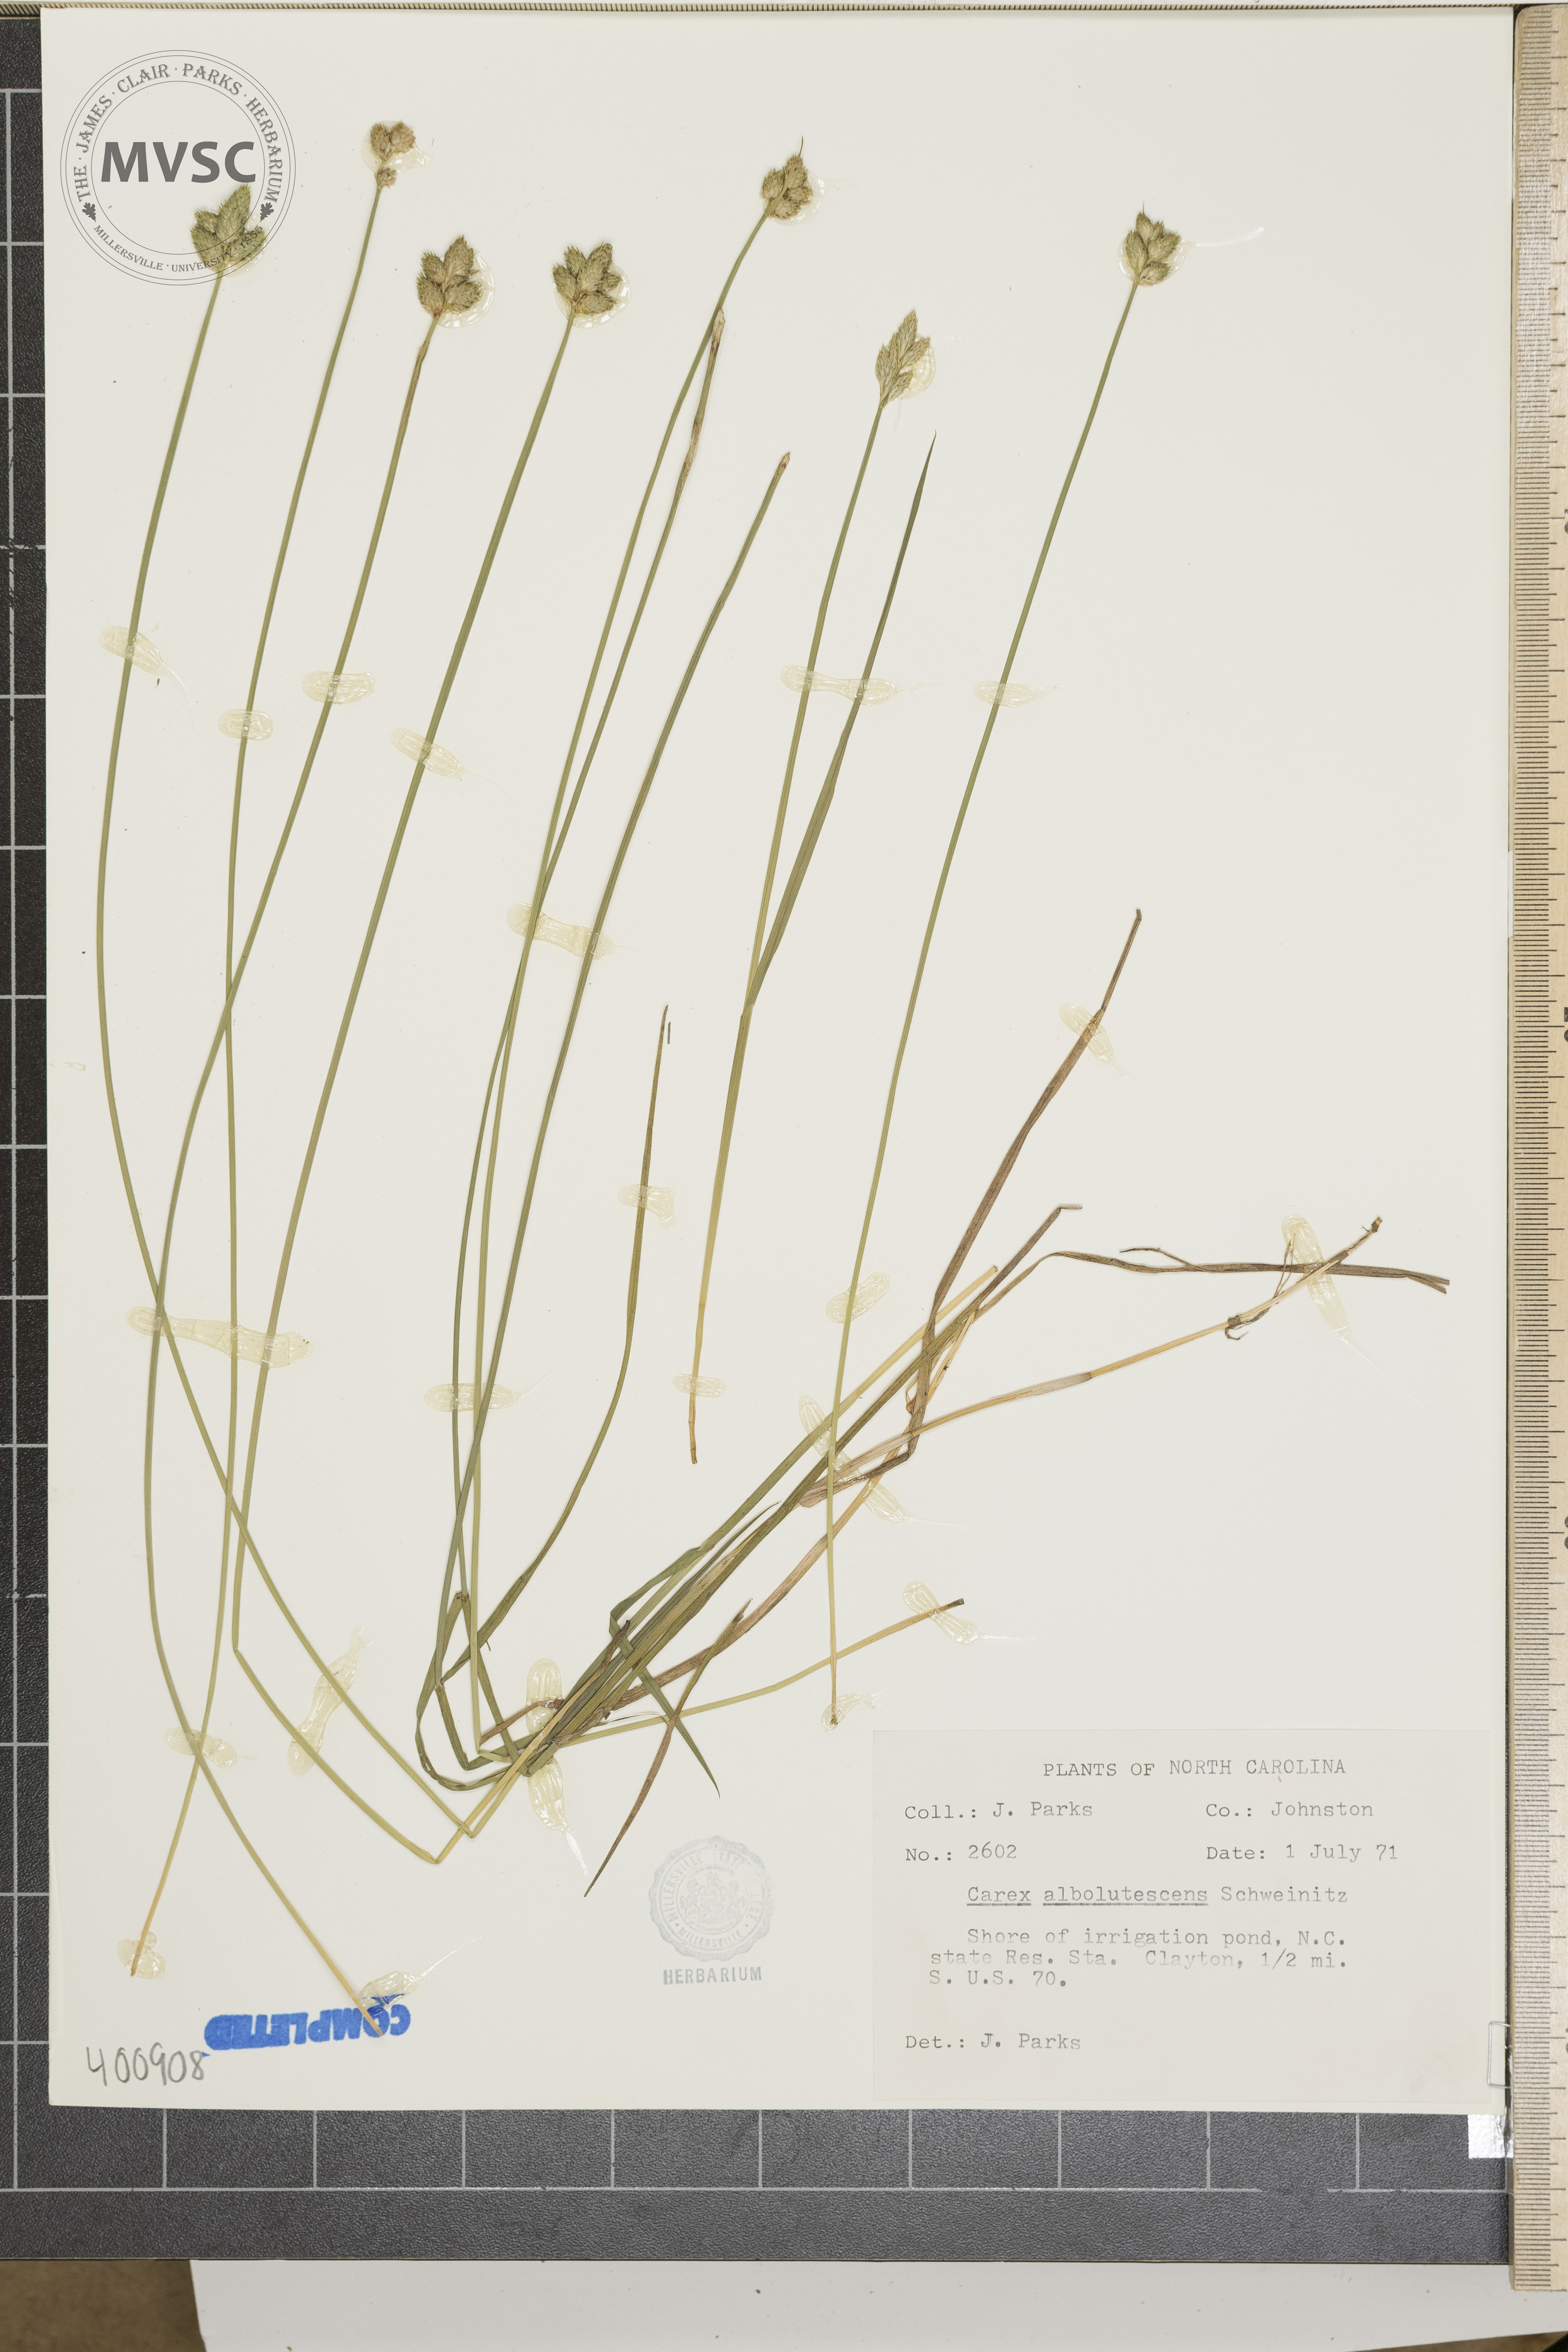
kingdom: Plantae
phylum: Tracheophyta
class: Liliopsida
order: Poales
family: Cyperaceae
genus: Carex
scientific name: Carex albolutescens
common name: sedge
